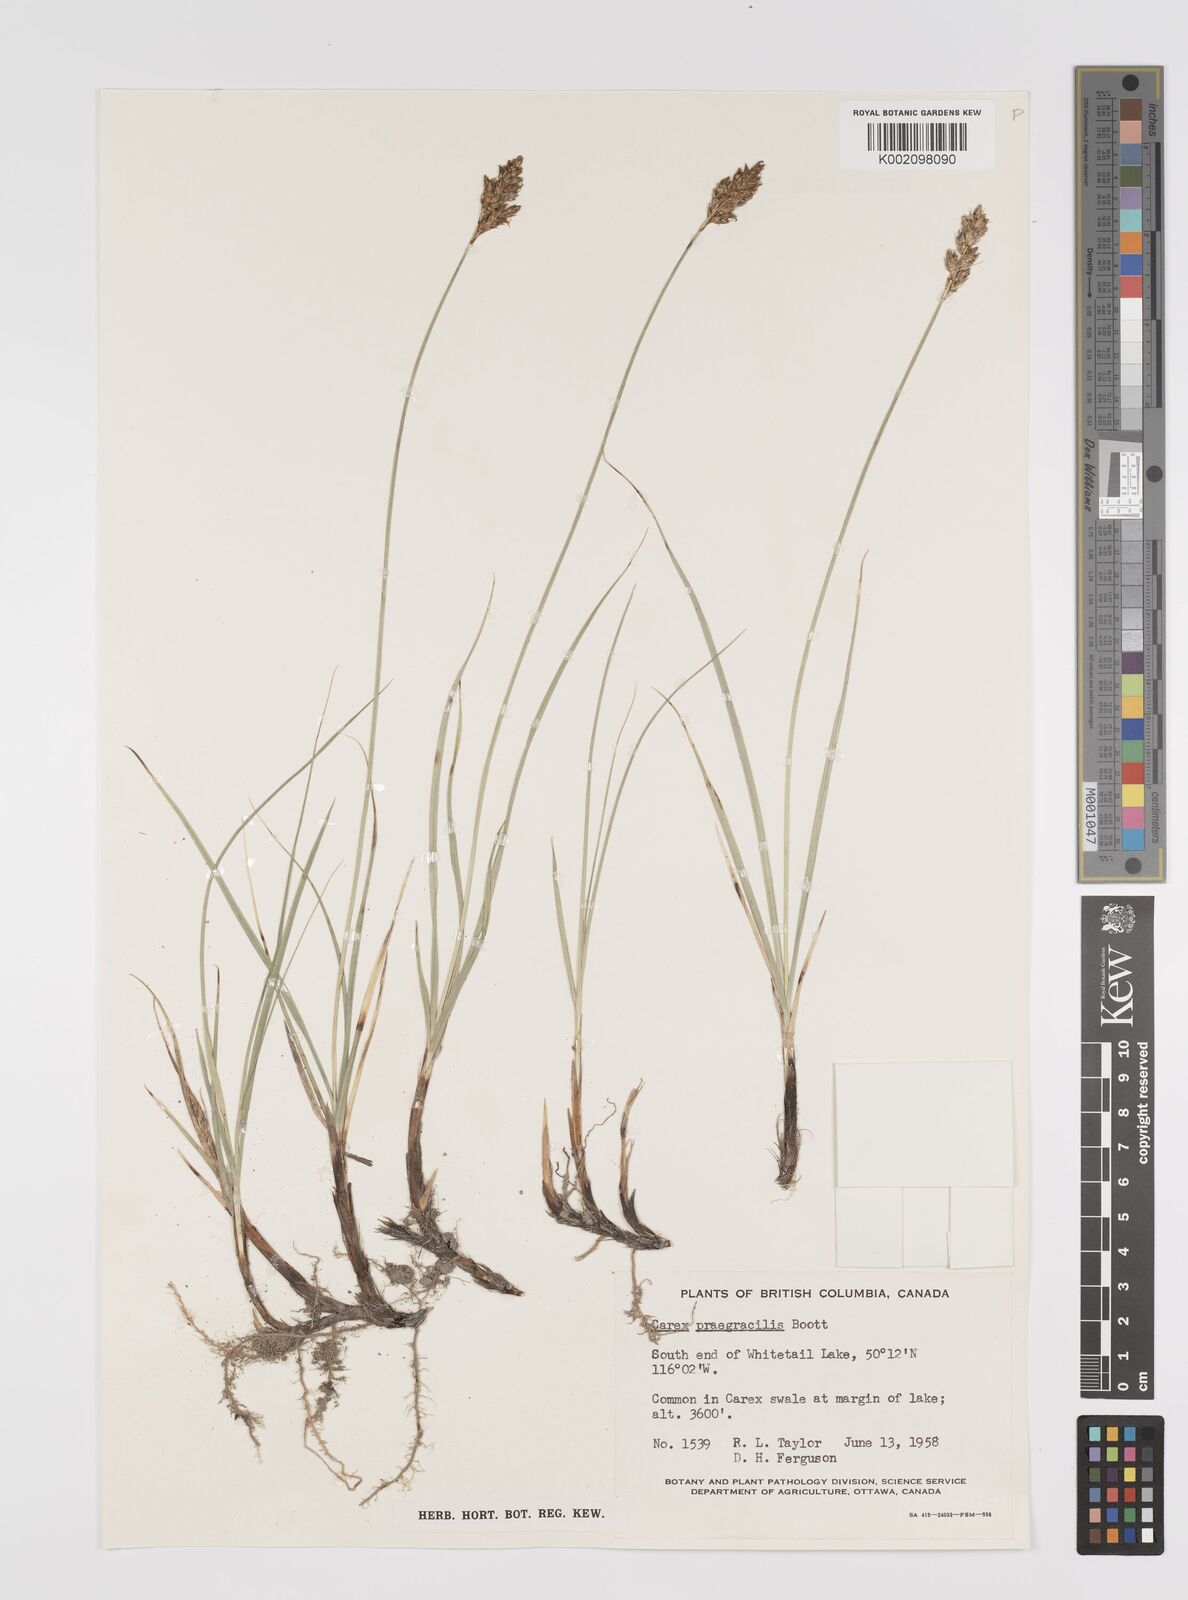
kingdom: Plantae
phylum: Tracheophyta
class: Liliopsida
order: Poales
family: Cyperaceae
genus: Carex
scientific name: Carex praegracilis
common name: Black creeper sedge
